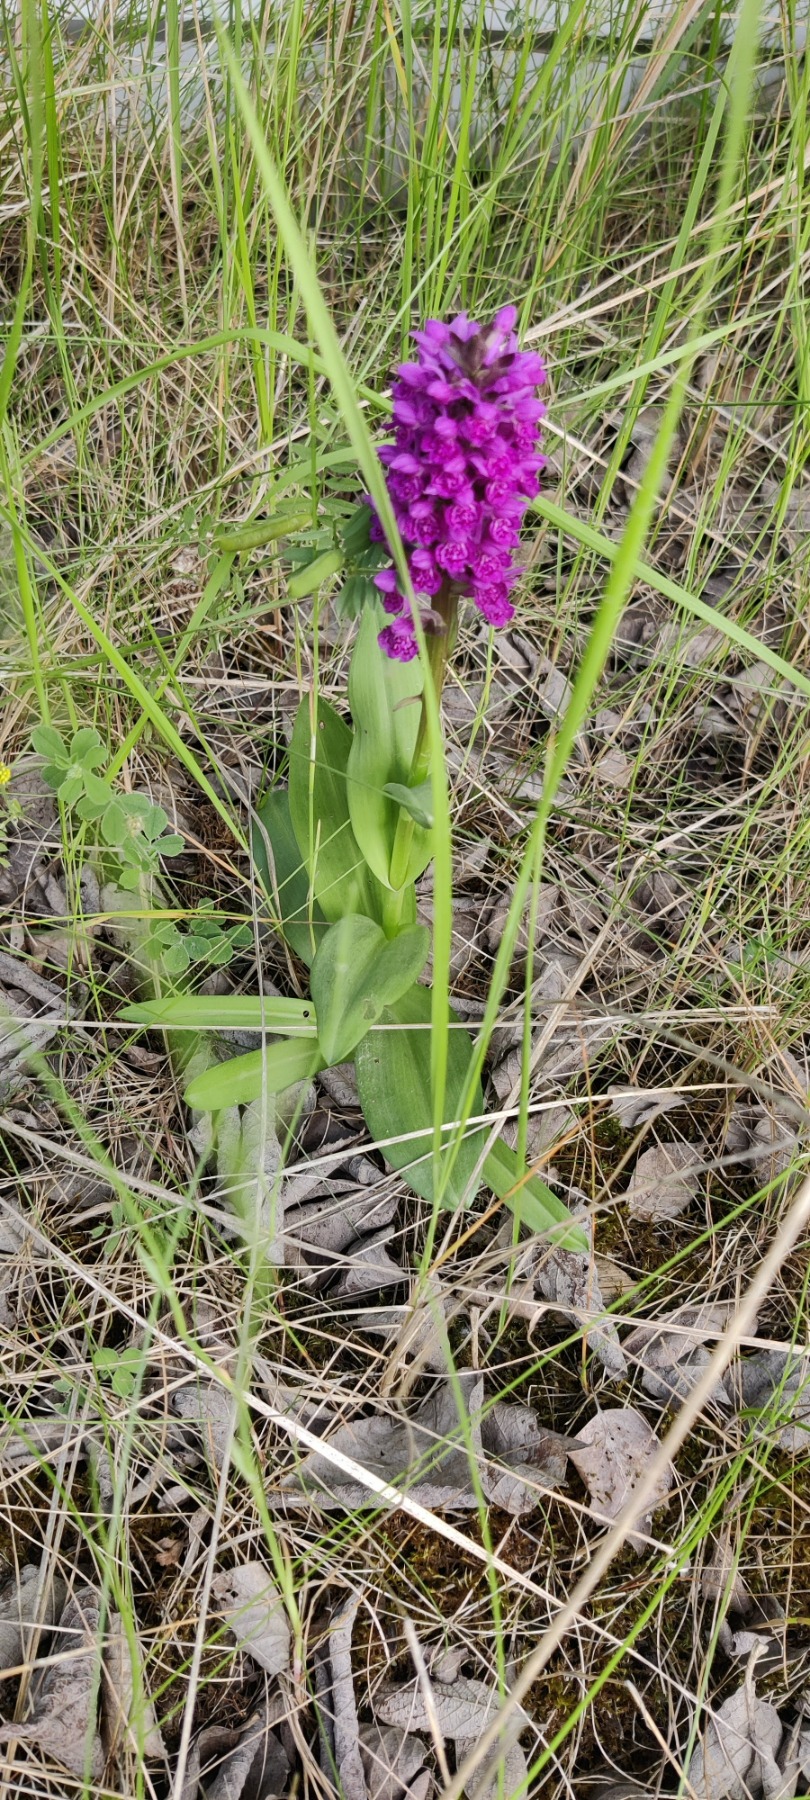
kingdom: Plantae
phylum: Tracheophyta
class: Liliopsida
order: Asparagales
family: Orchidaceae
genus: Dactylorhiza
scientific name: Dactylorhiza majalis
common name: Purpur-gøgeurt
